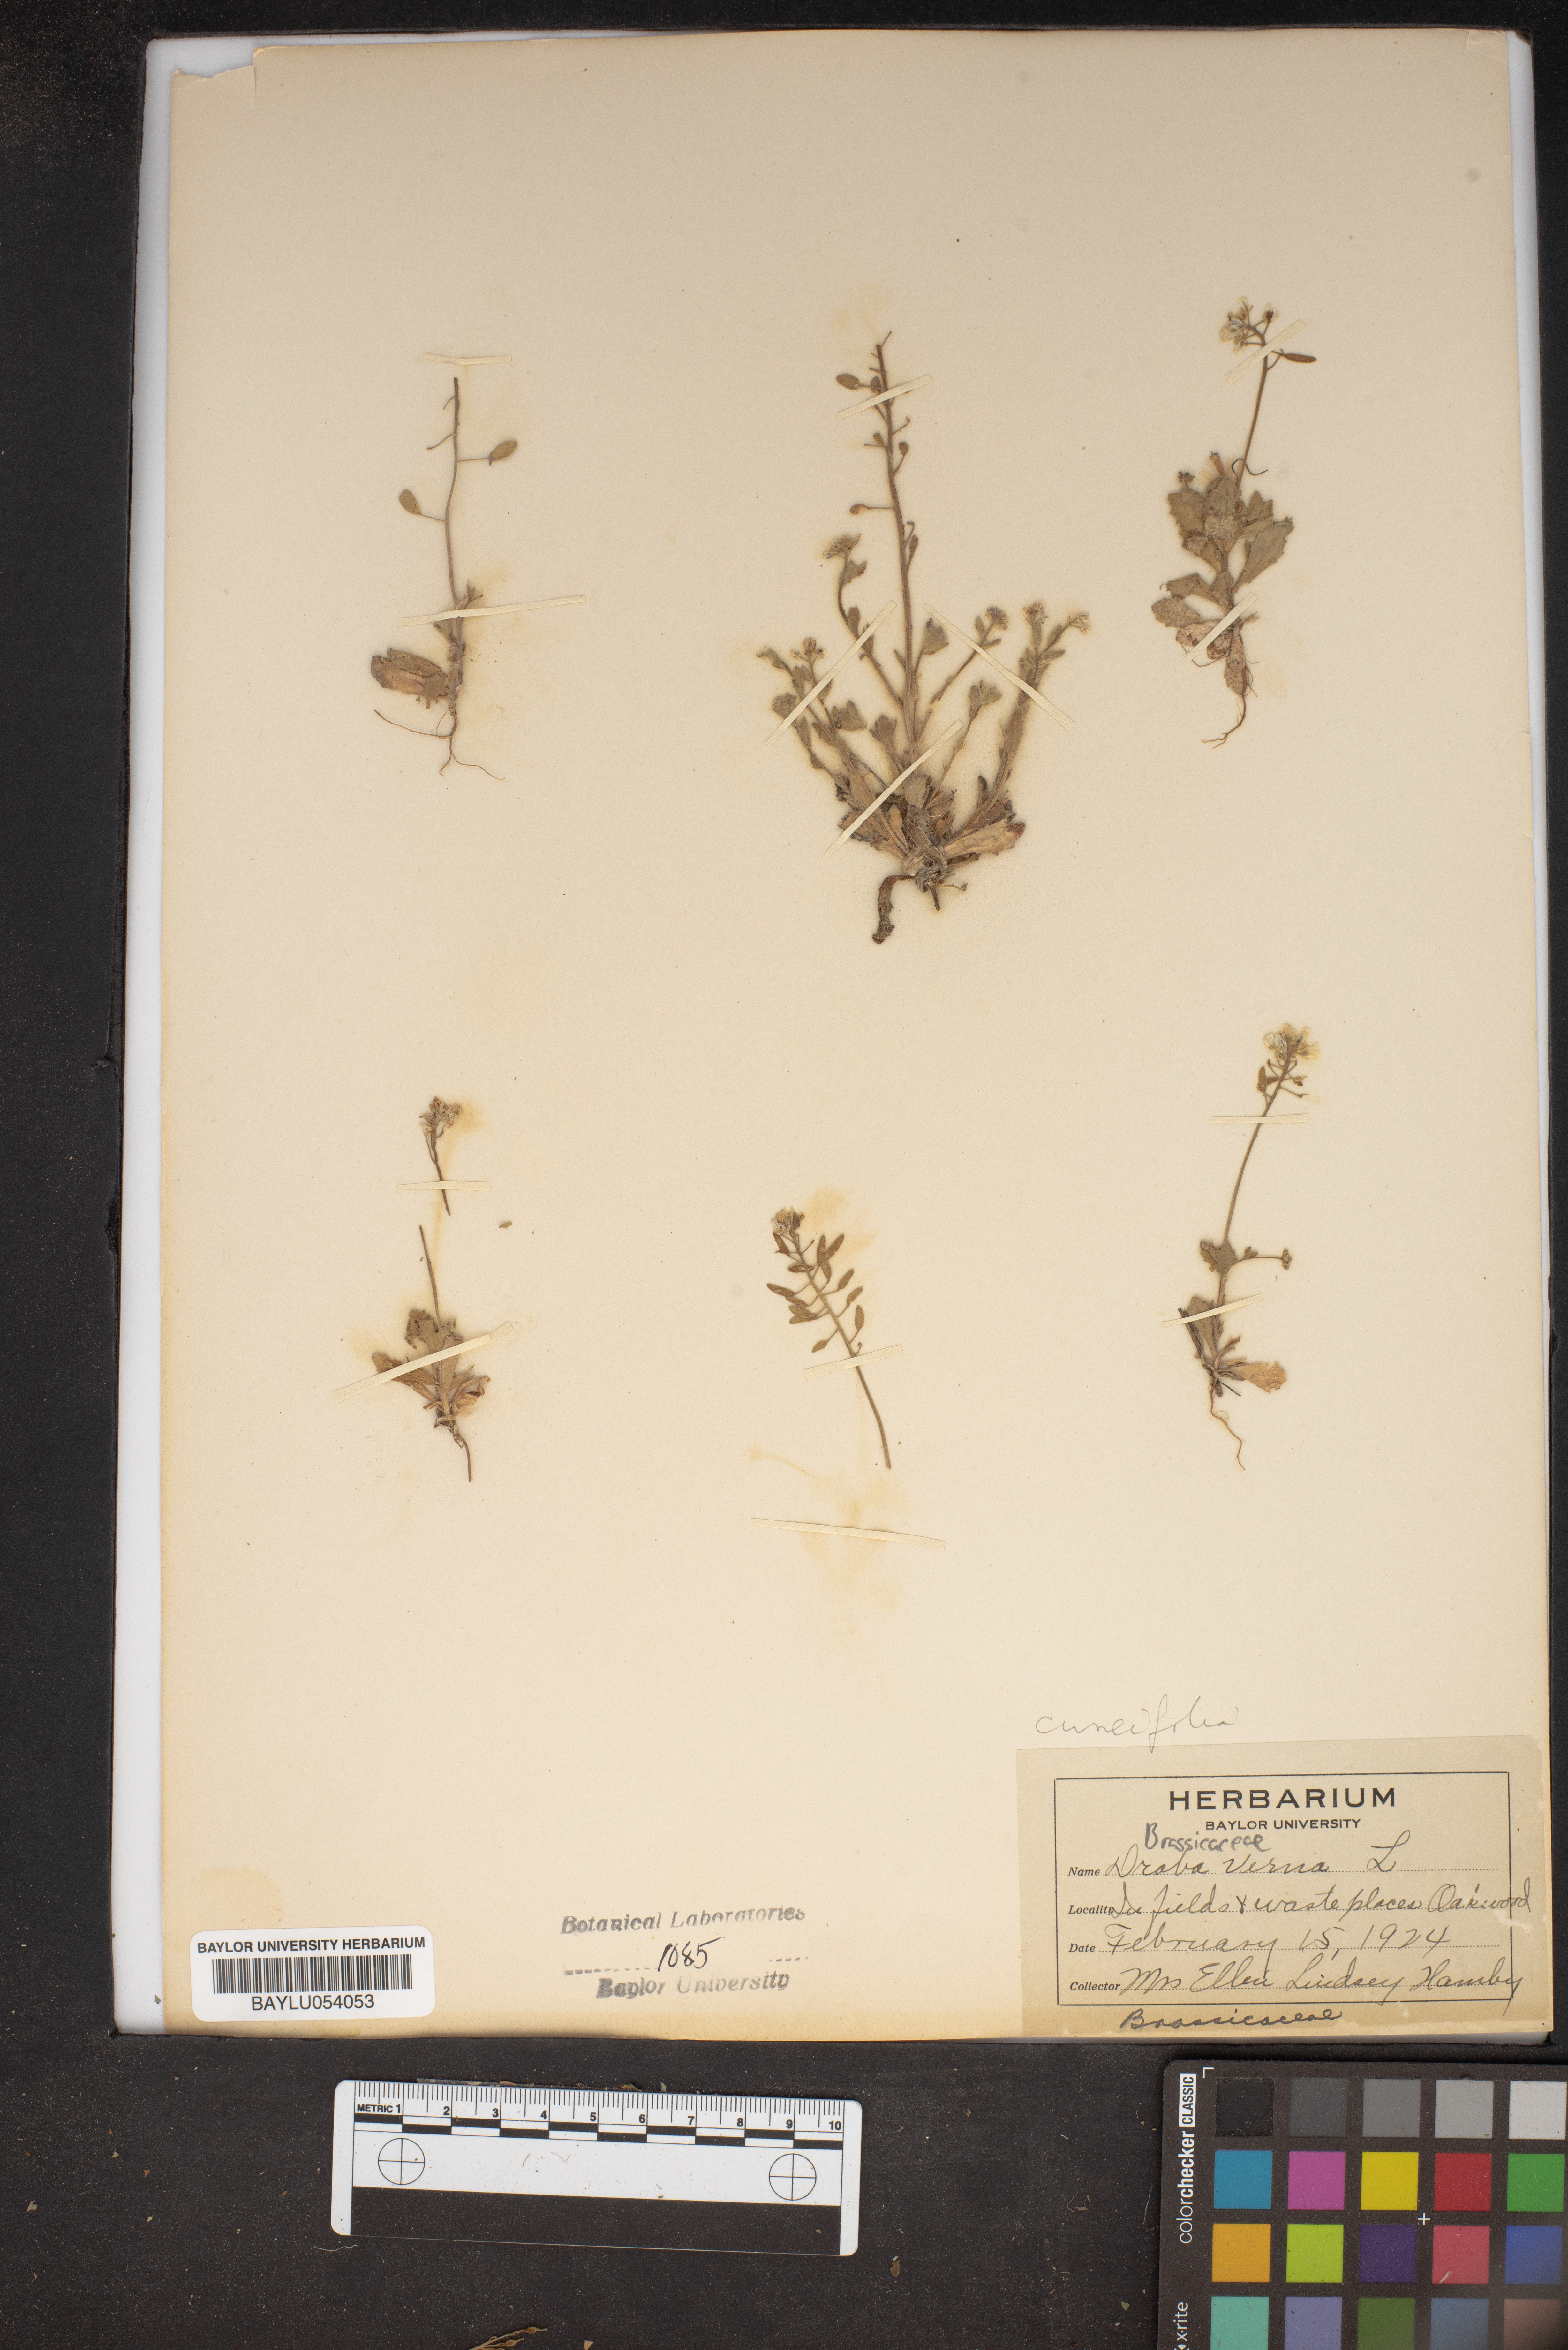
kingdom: Plantae
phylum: Tracheophyta
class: Magnoliopsida
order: Brassicales
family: Brassicaceae
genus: Draba
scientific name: Draba verna
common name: Spring draba
